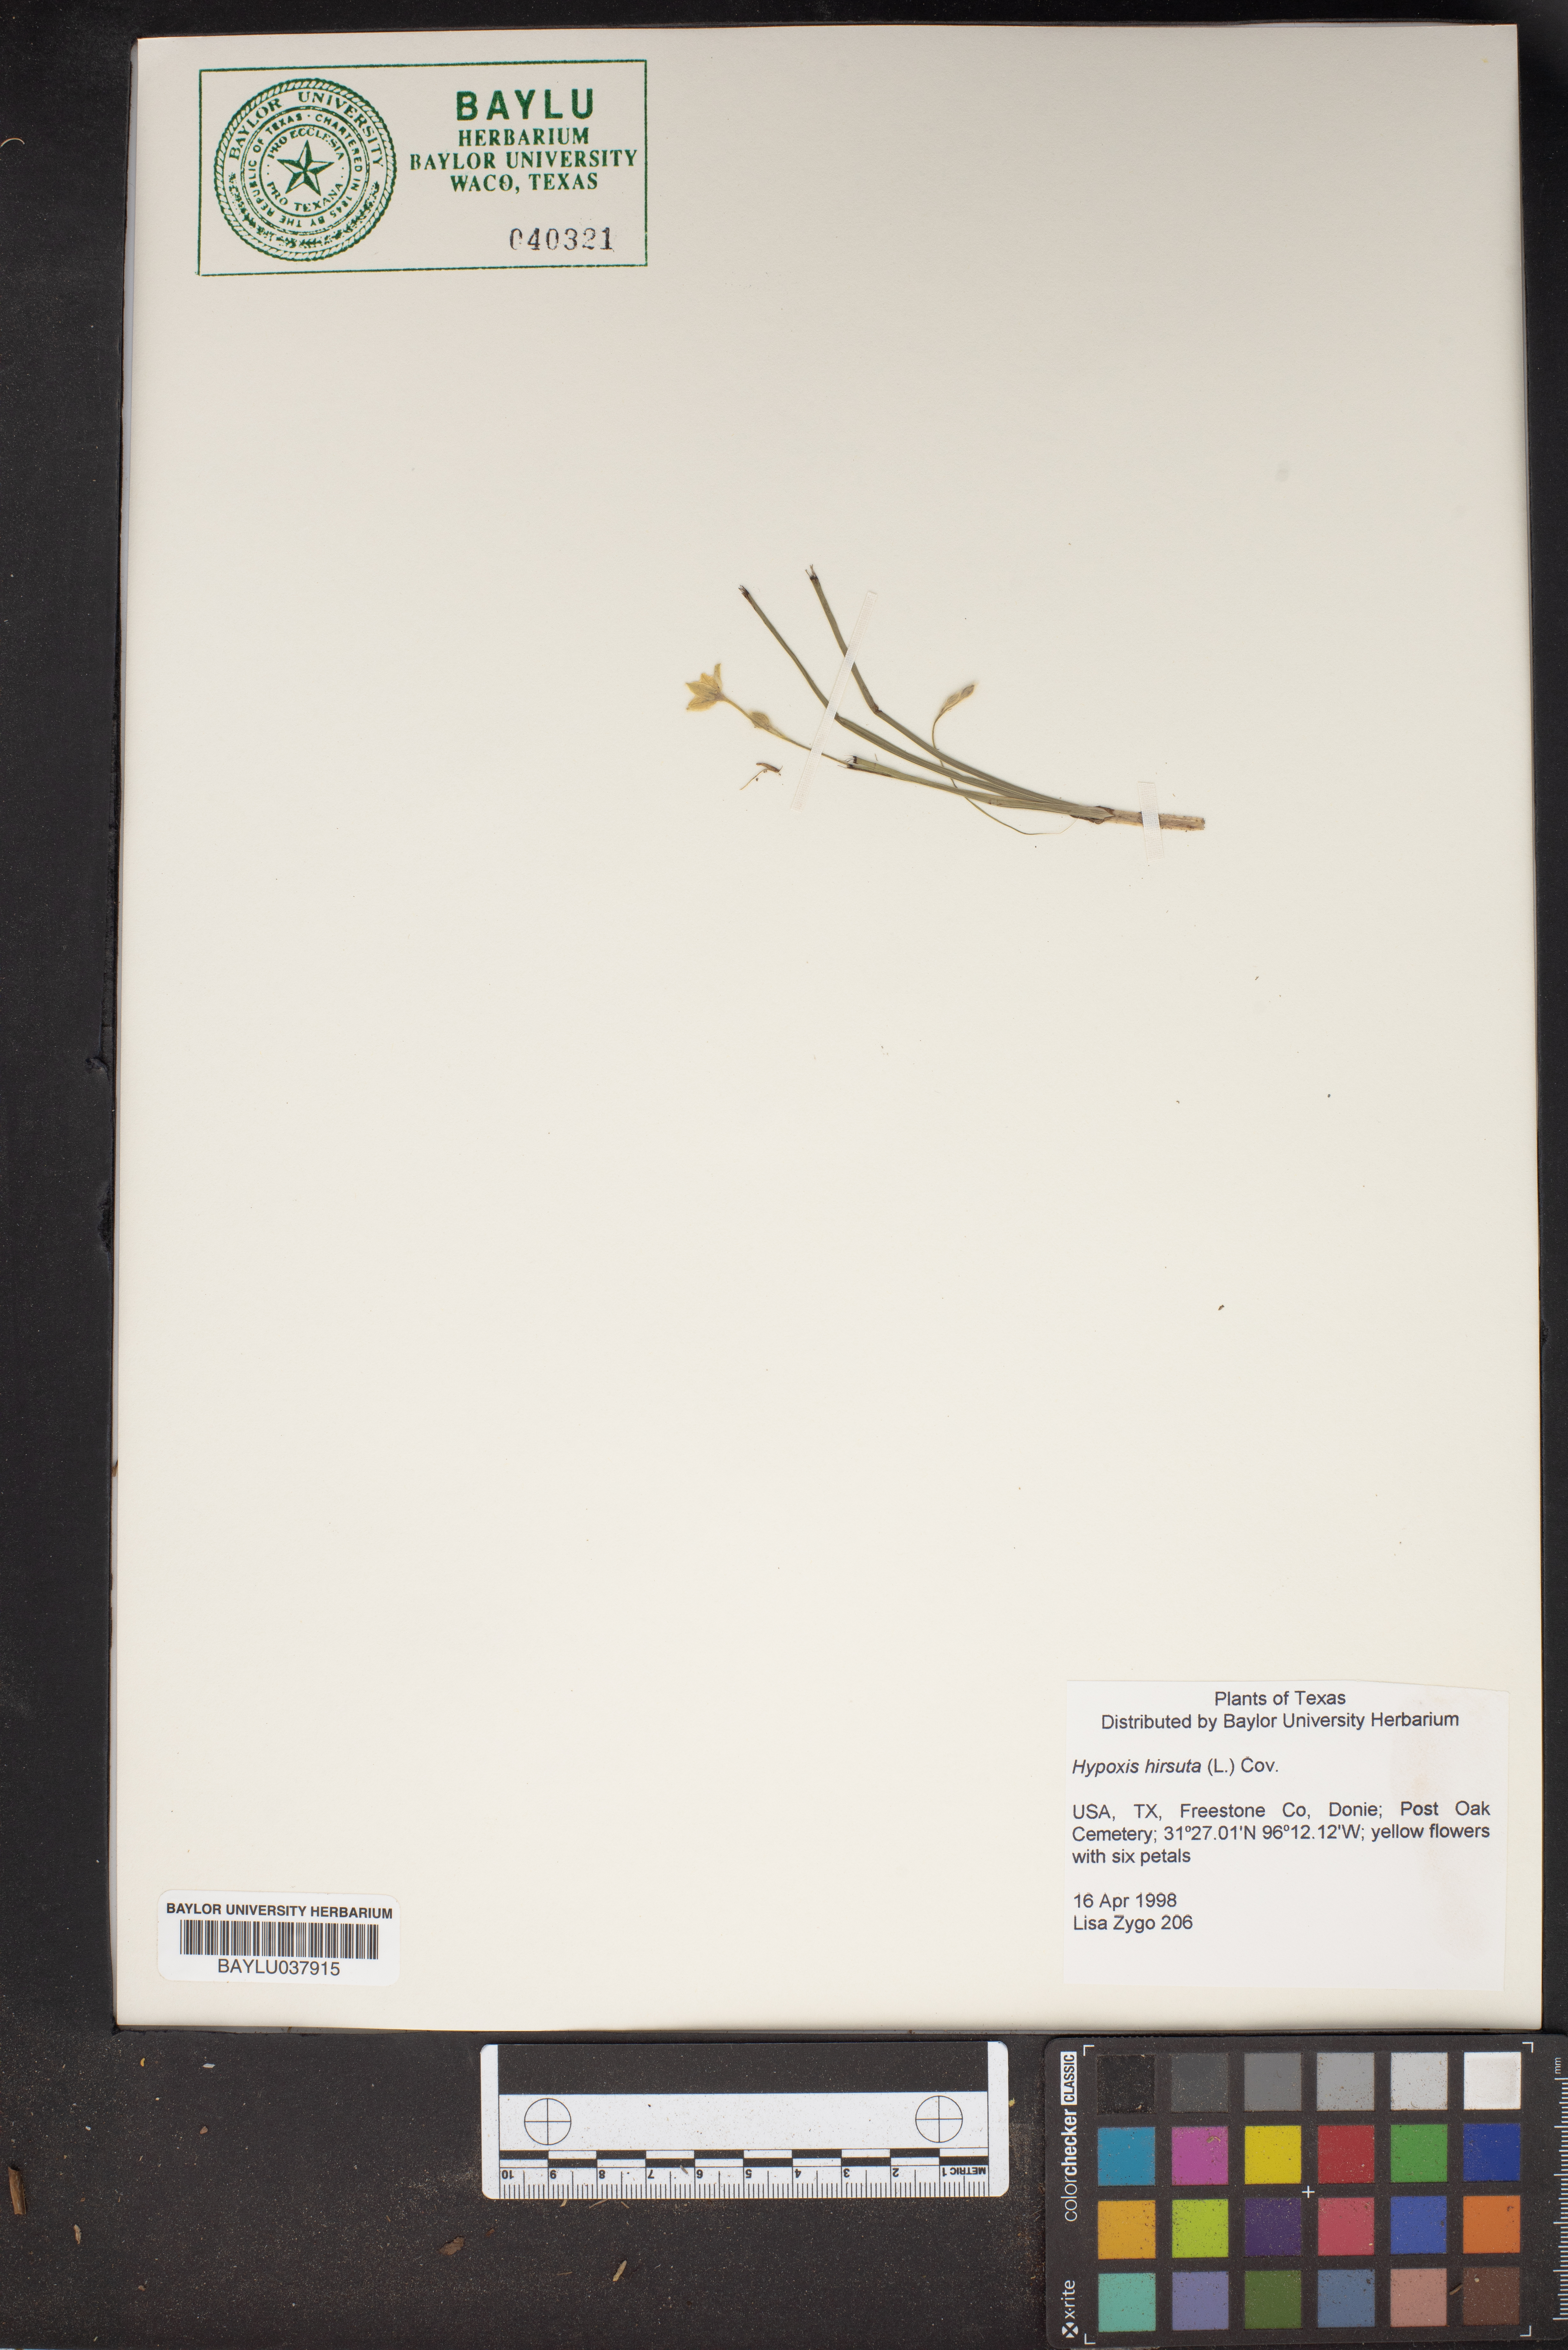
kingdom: Plantae
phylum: Tracheophyta
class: Liliopsida
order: Asparagales
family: Hypoxidaceae
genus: Hypoxis
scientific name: Hypoxis hirsuta
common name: Common goldstar
